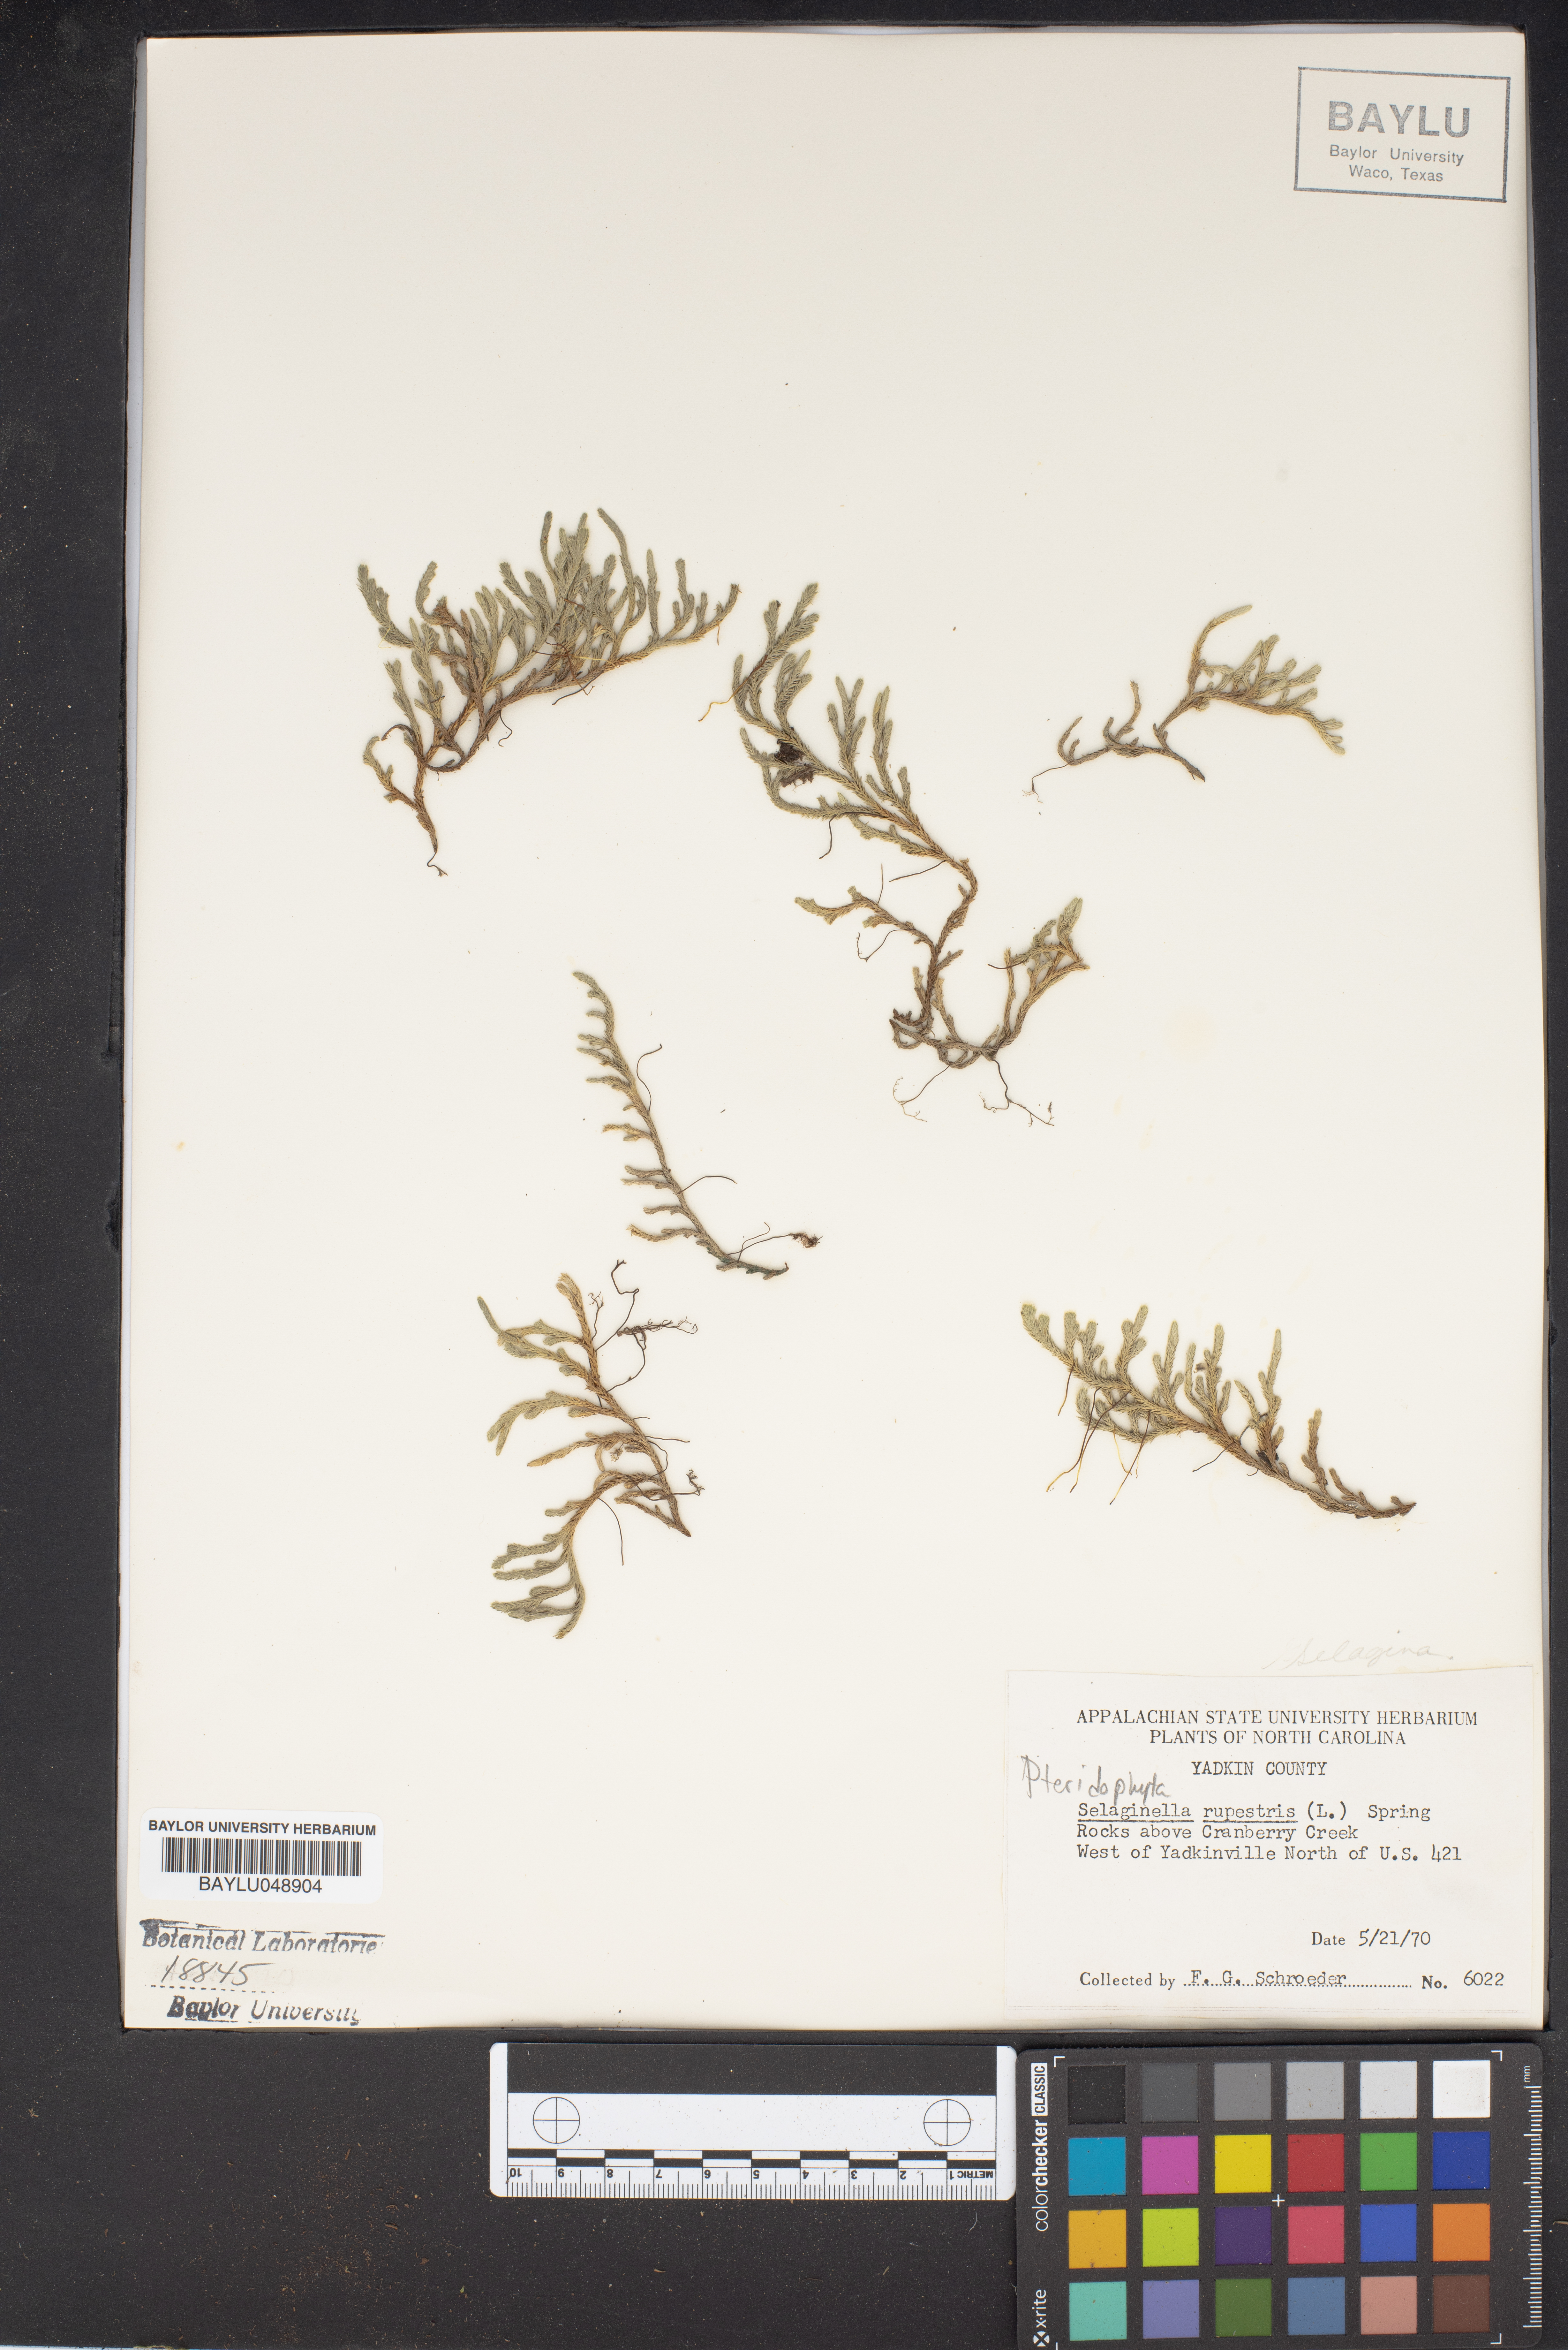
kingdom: Plantae
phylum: Tracheophyta
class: Lycopodiopsida
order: Selaginellales
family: Selaginellaceae
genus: Selaginella
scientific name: Selaginella rupestris
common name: Dwarf spikemoss
